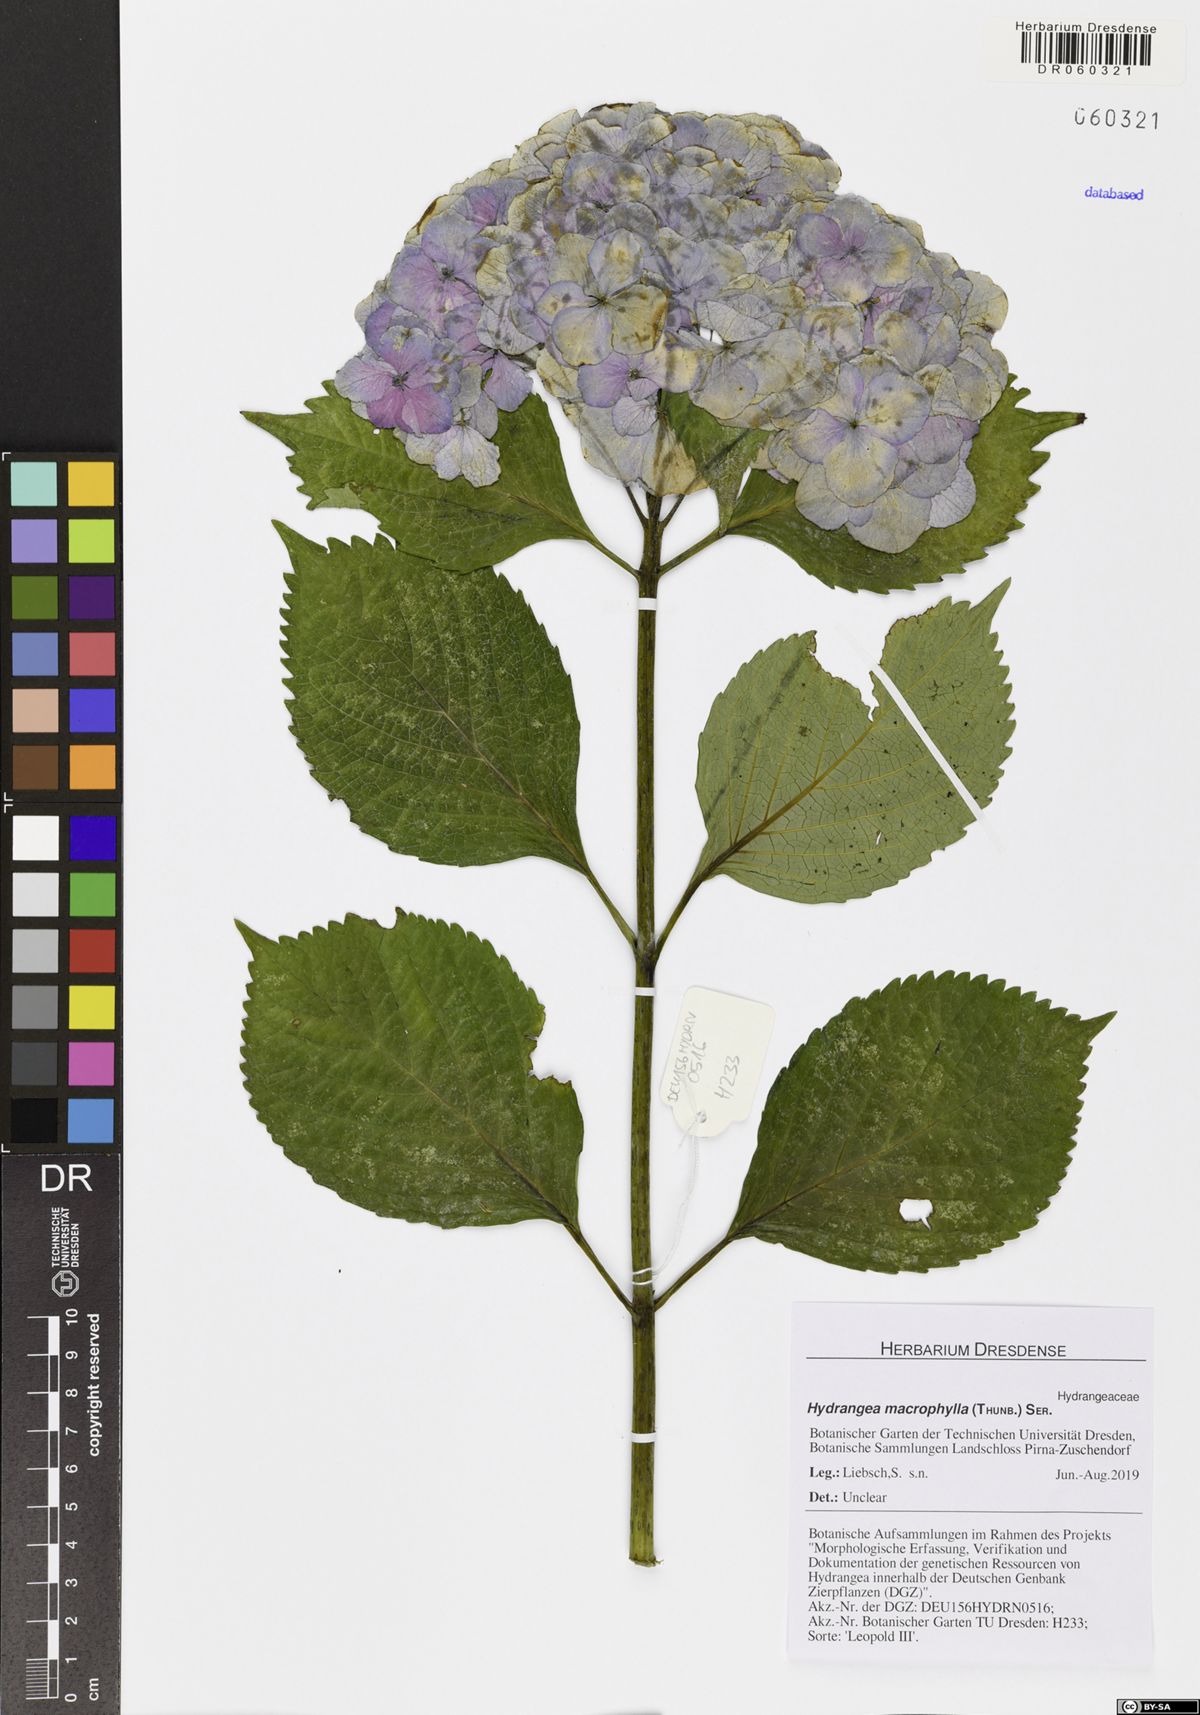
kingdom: Plantae
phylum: Tracheophyta
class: Magnoliopsida
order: Cornales
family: Hydrangeaceae
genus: Hydrangea
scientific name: Hydrangea macrophylla
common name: Hydrangea
